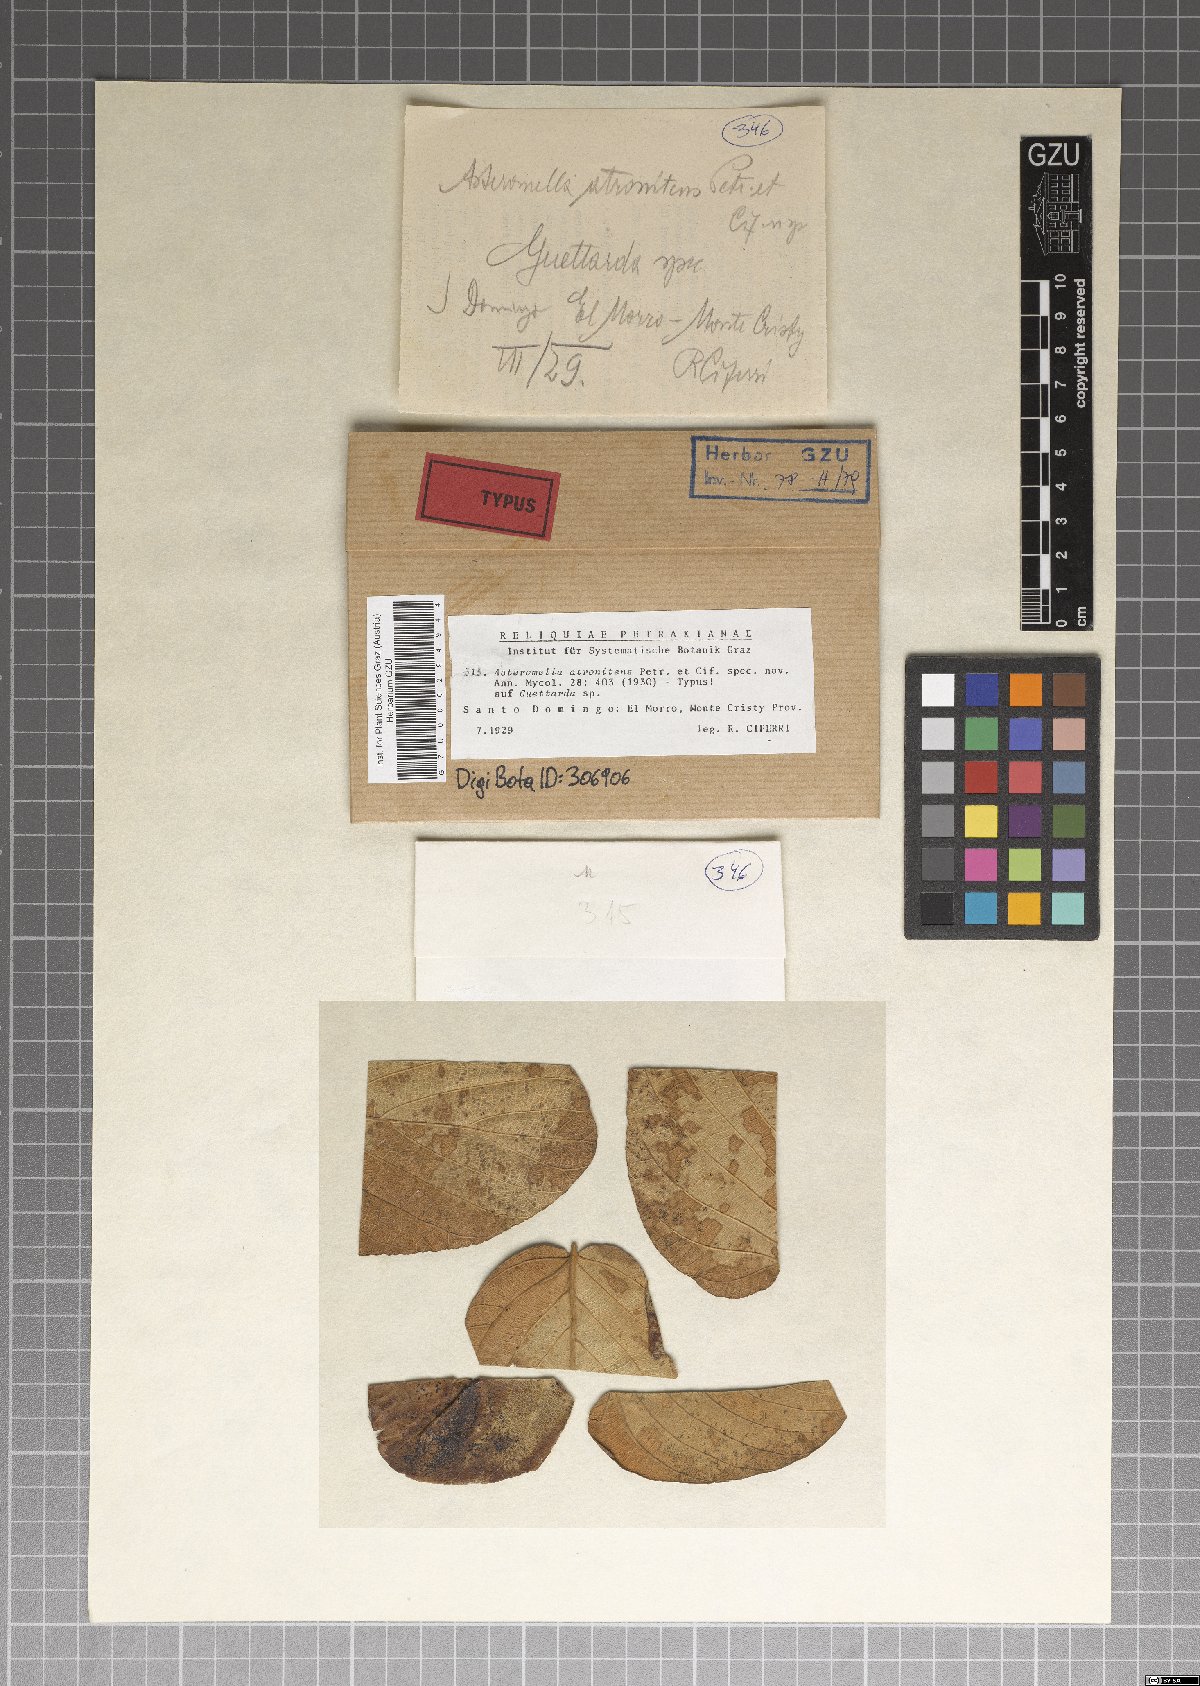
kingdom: Fungi
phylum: Ascomycota
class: Dothideomycetes
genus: Asteromella
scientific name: Asteromella atronitens
